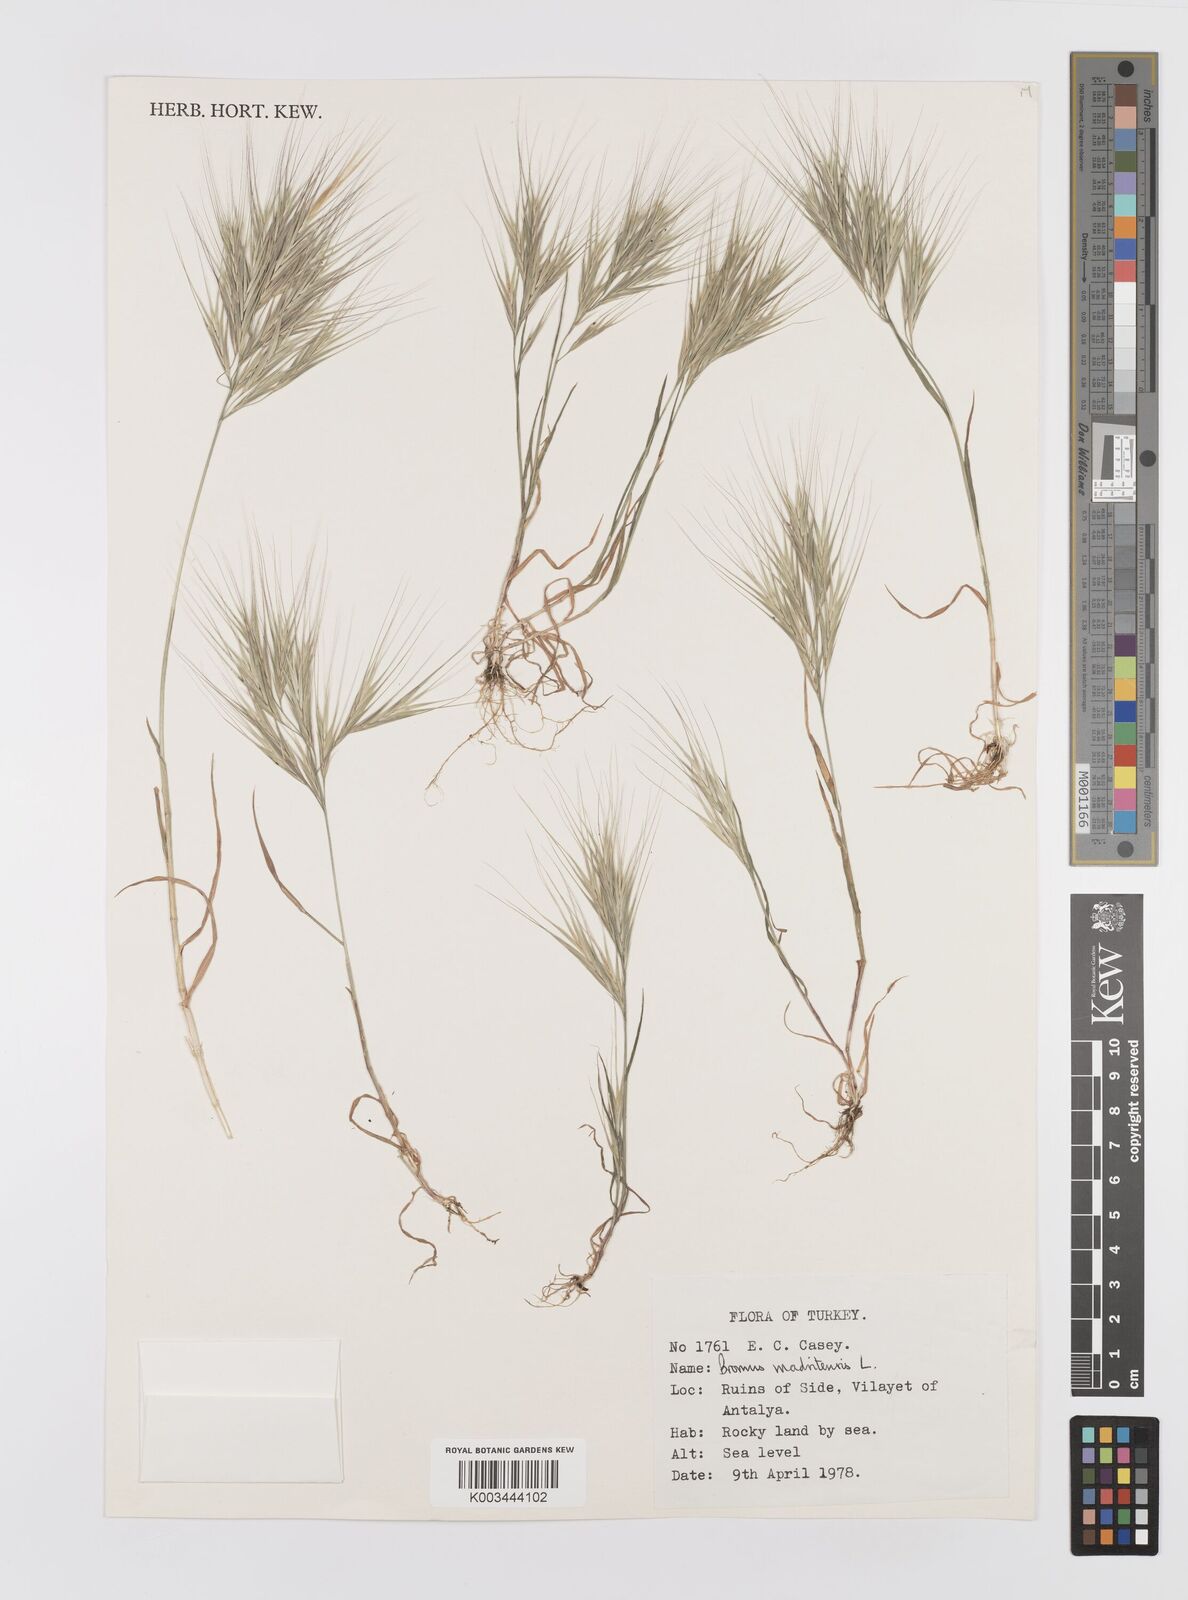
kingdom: Plantae
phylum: Tracheophyta
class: Liliopsida
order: Poales
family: Poaceae
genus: Bromus
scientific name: Bromus madritensis
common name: Compact brome
